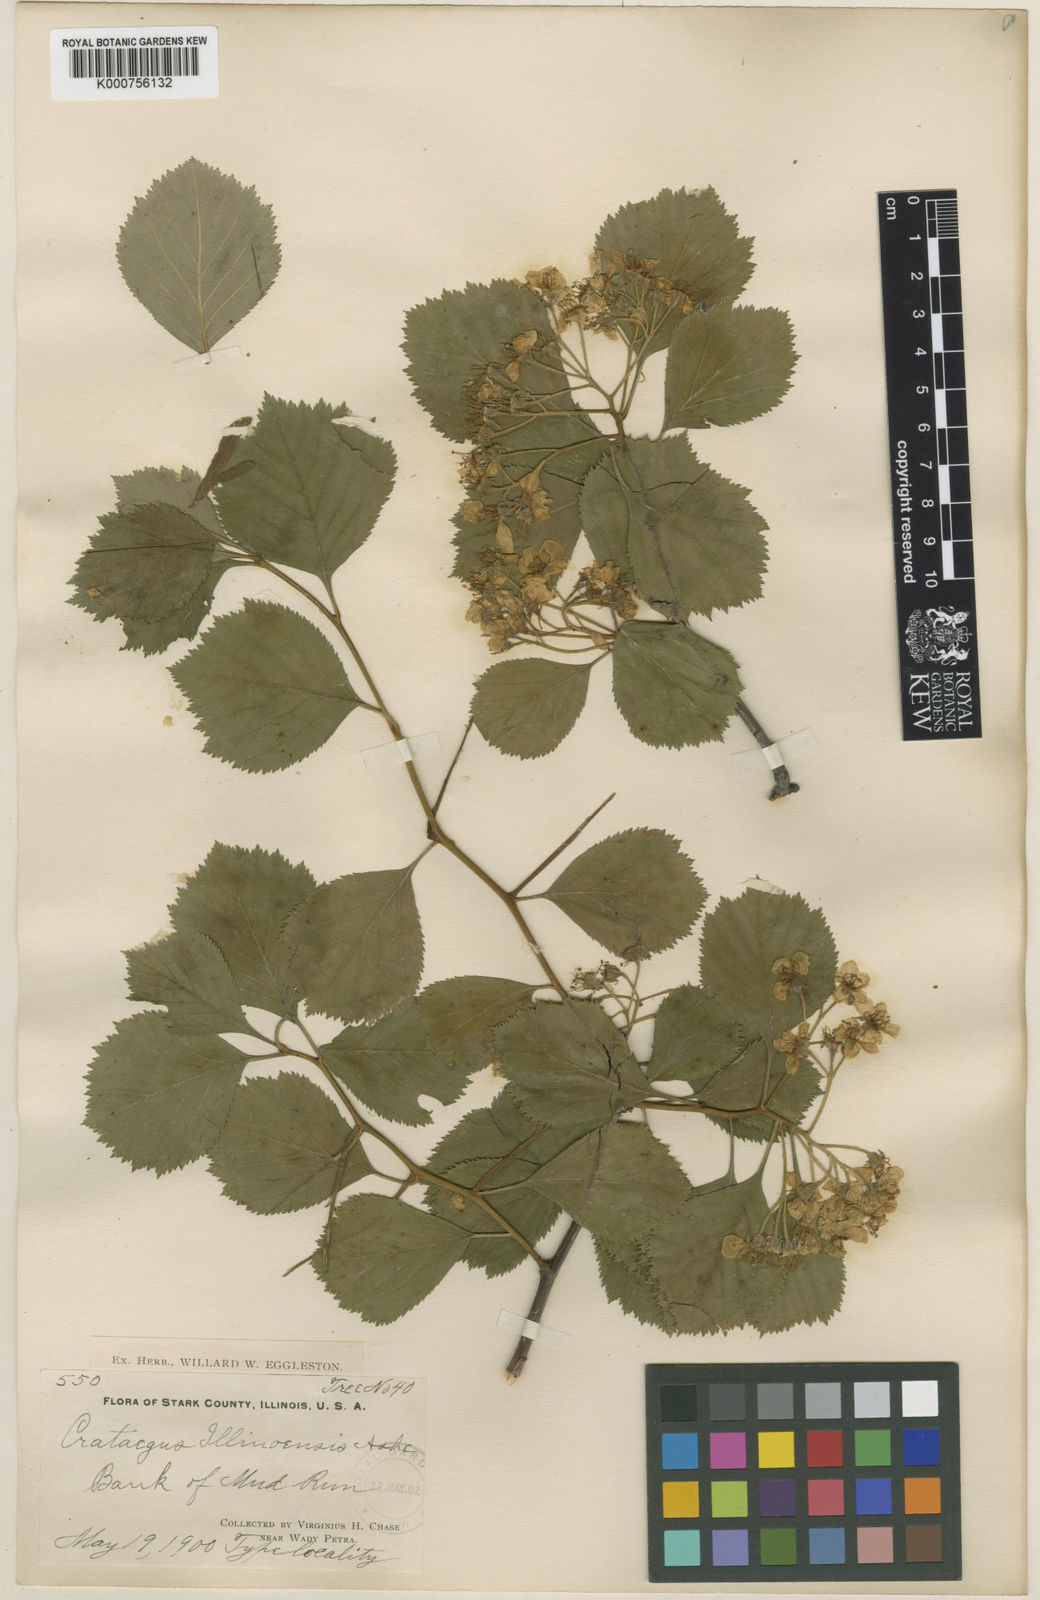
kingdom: Plantae
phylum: Tracheophyta
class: Magnoliopsida
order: Rosales
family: Rosaceae
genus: Crataegus
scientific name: Crataegus illinoiensis
